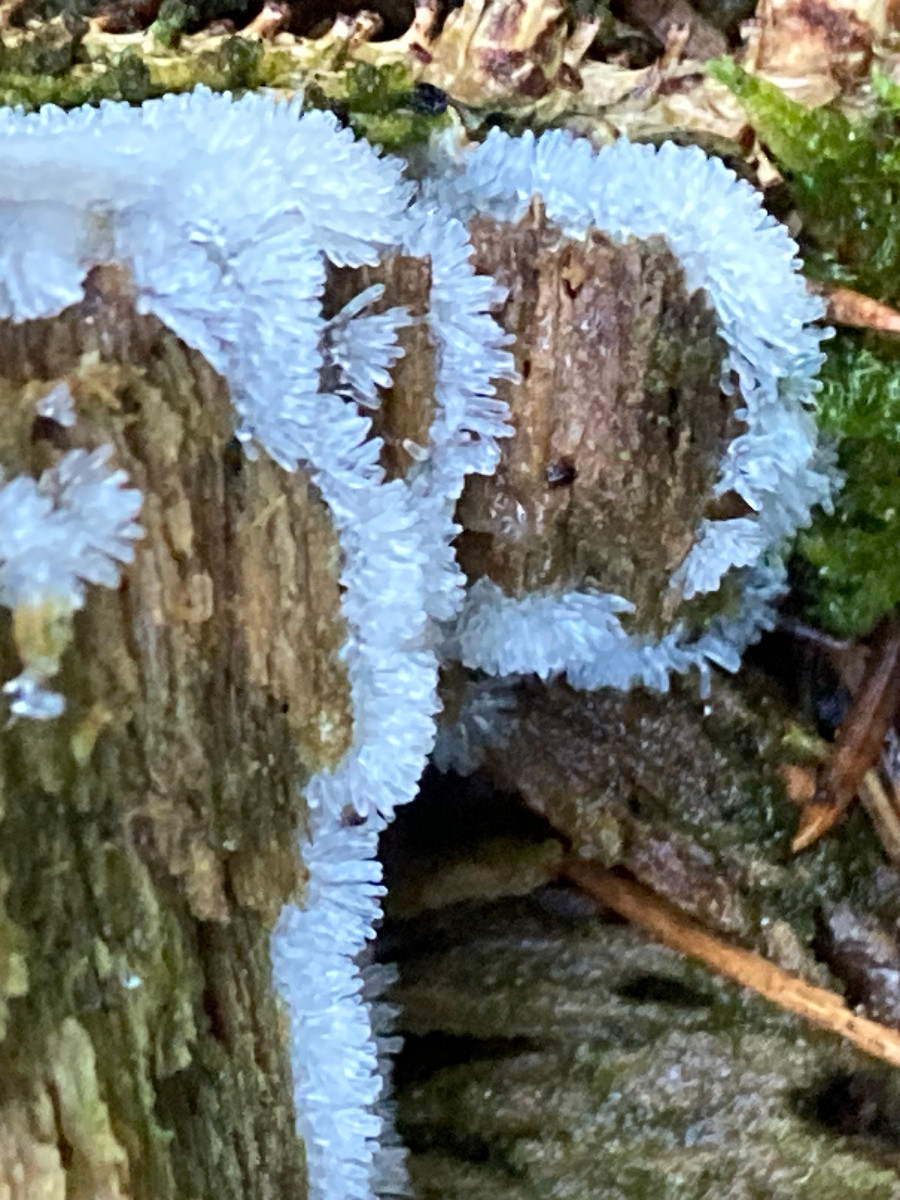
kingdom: Protozoa
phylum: Mycetozoa
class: Protosteliomycetes
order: Ceratiomyxales
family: Ceratiomyxaceae
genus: Ceratiomyxa
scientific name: Ceratiomyxa fruticulosa
